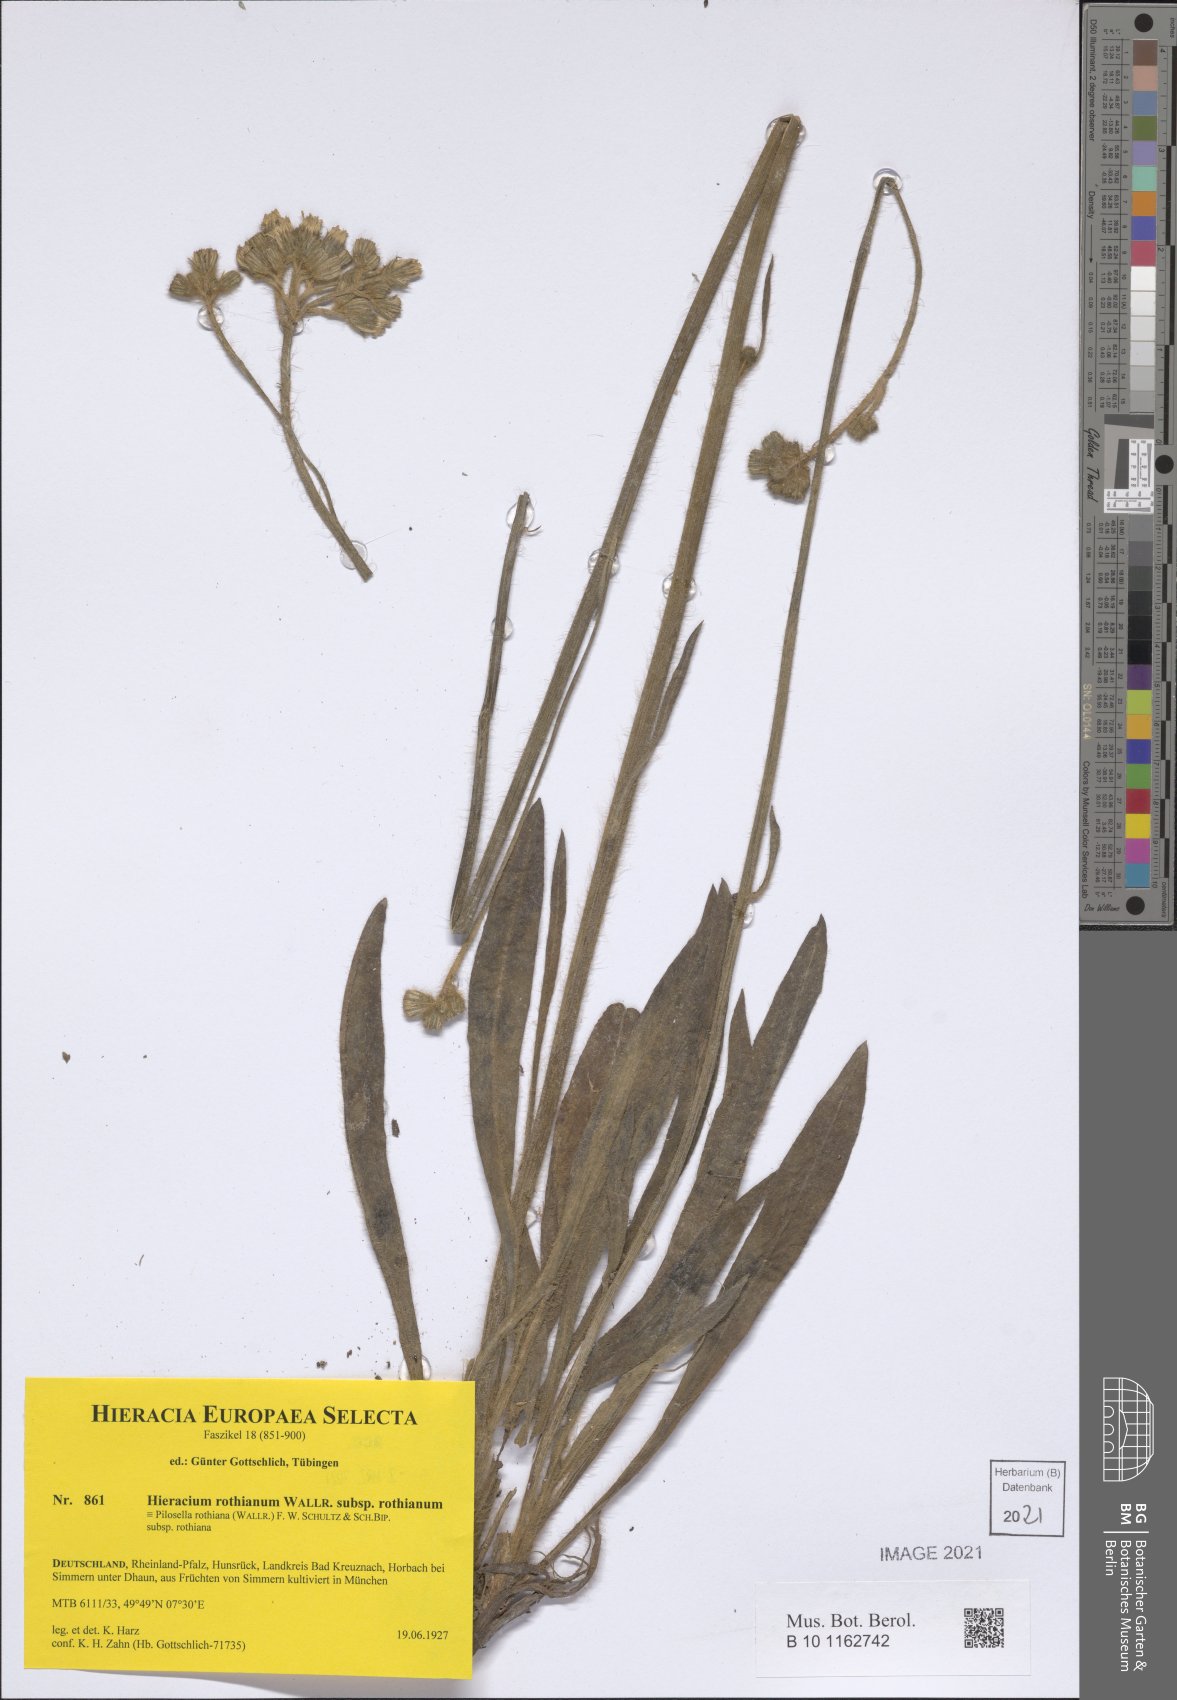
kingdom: Plantae
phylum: Tracheophyta
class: Magnoliopsida
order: Asterales
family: Asteraceae
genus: Pilosella
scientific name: Pilosella rothiana
